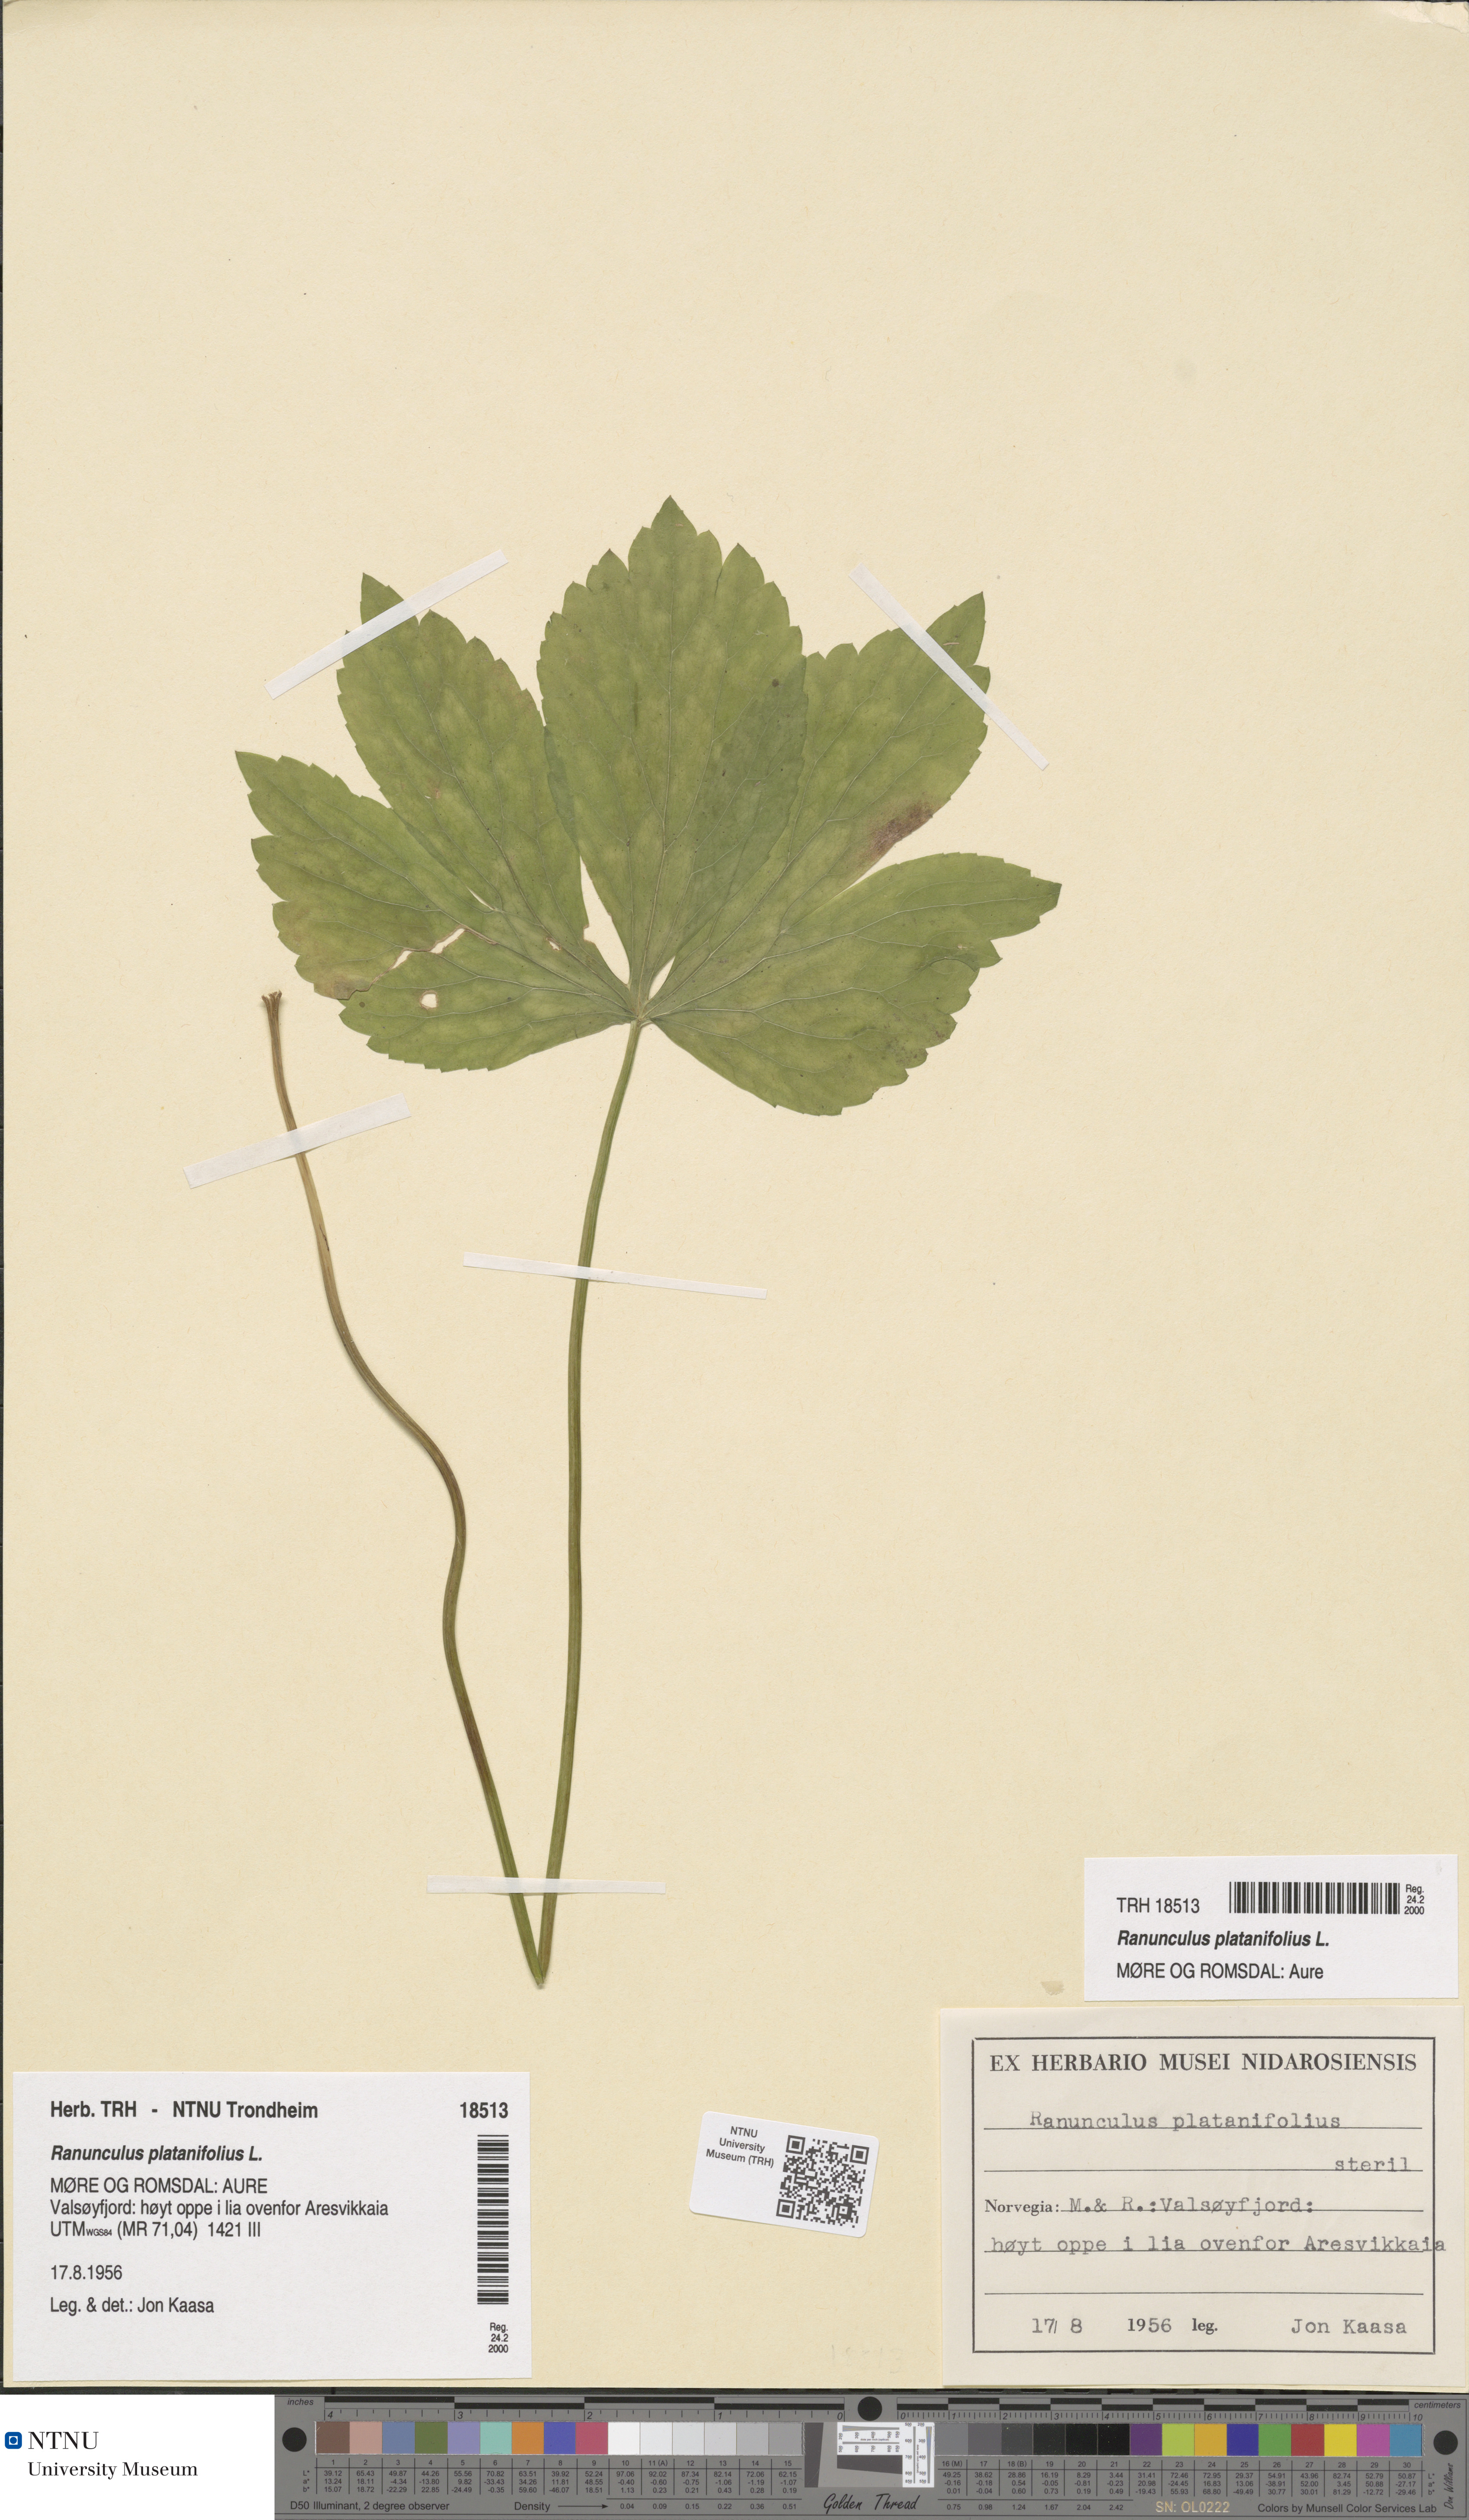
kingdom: Plantae
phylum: Tracheophyta
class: Magnoliopsida
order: Ranunculales
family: Ranunculaceae
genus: Ranunculus
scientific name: Ranunculus platanifolius
